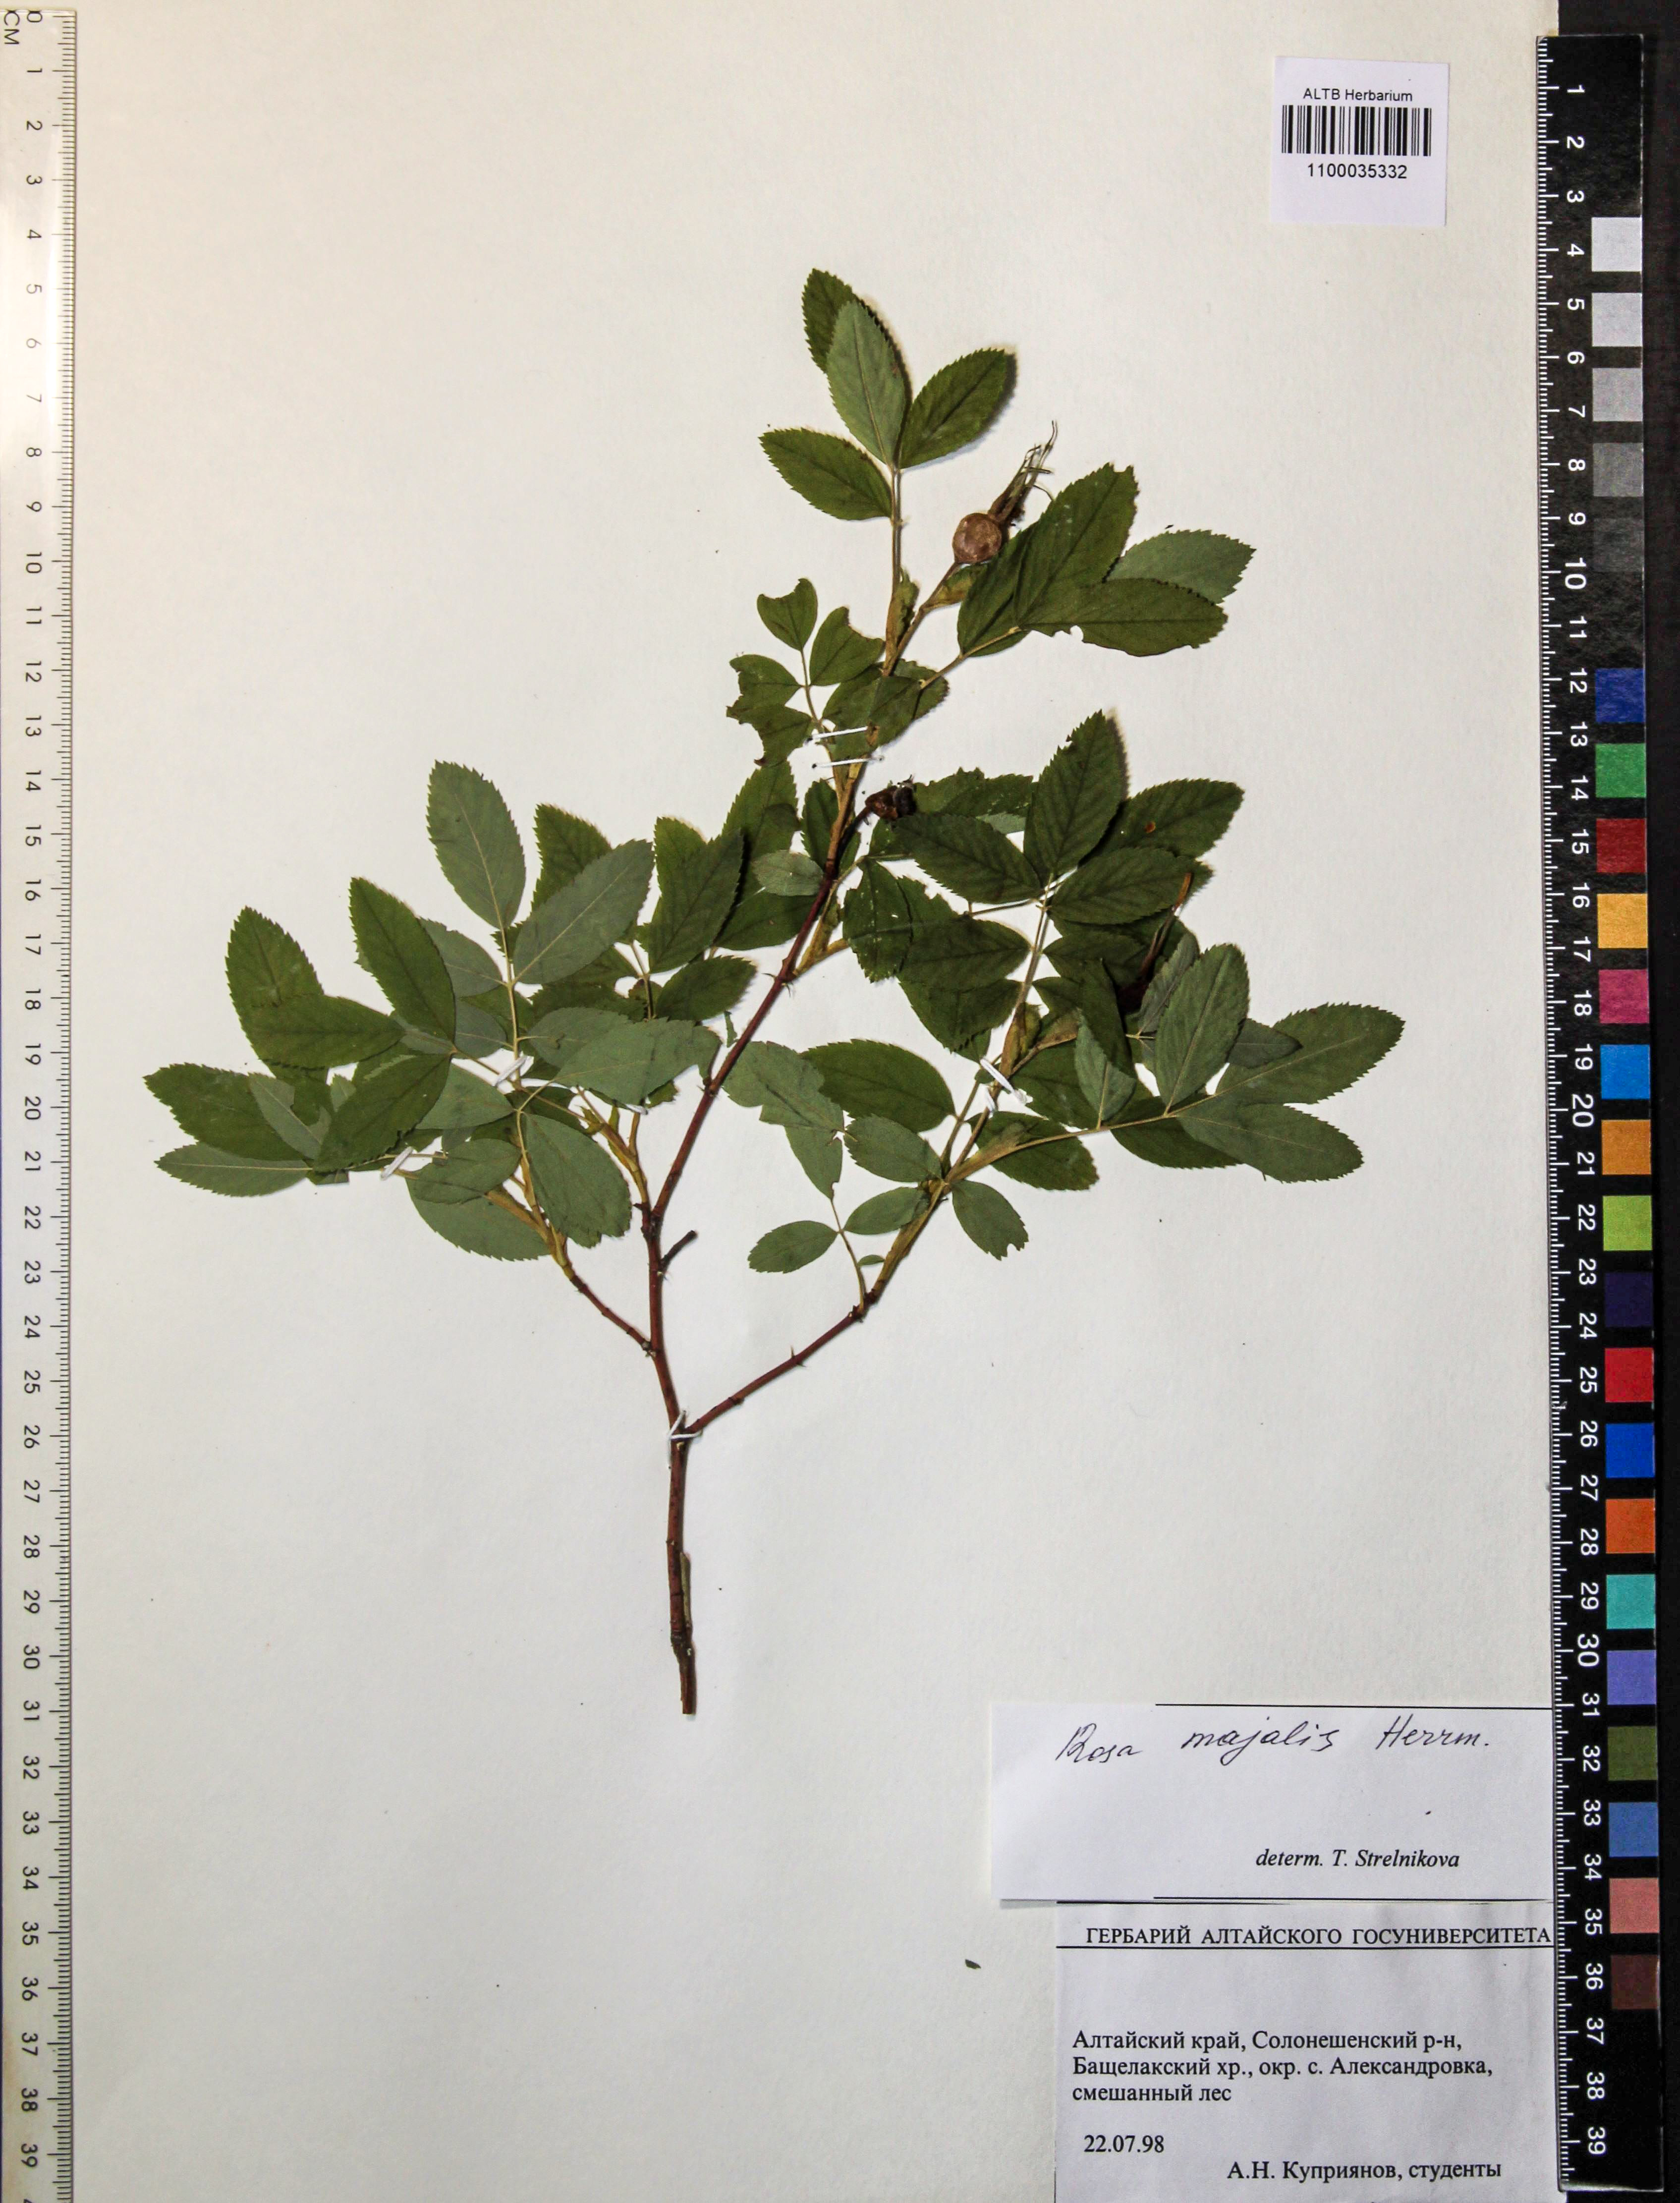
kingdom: Plantae
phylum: Tracheophyta
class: Magnoliopsida
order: Rosales
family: Rosaceae
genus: Rosa
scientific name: Rosa majalis
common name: Cinnamon rose
